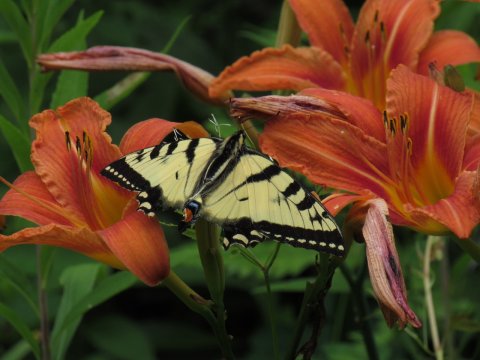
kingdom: Animalia
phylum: Arthropoda
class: Insecta
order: Lepidoptera
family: Papilionidae
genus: Pterourus
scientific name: Pterourus
